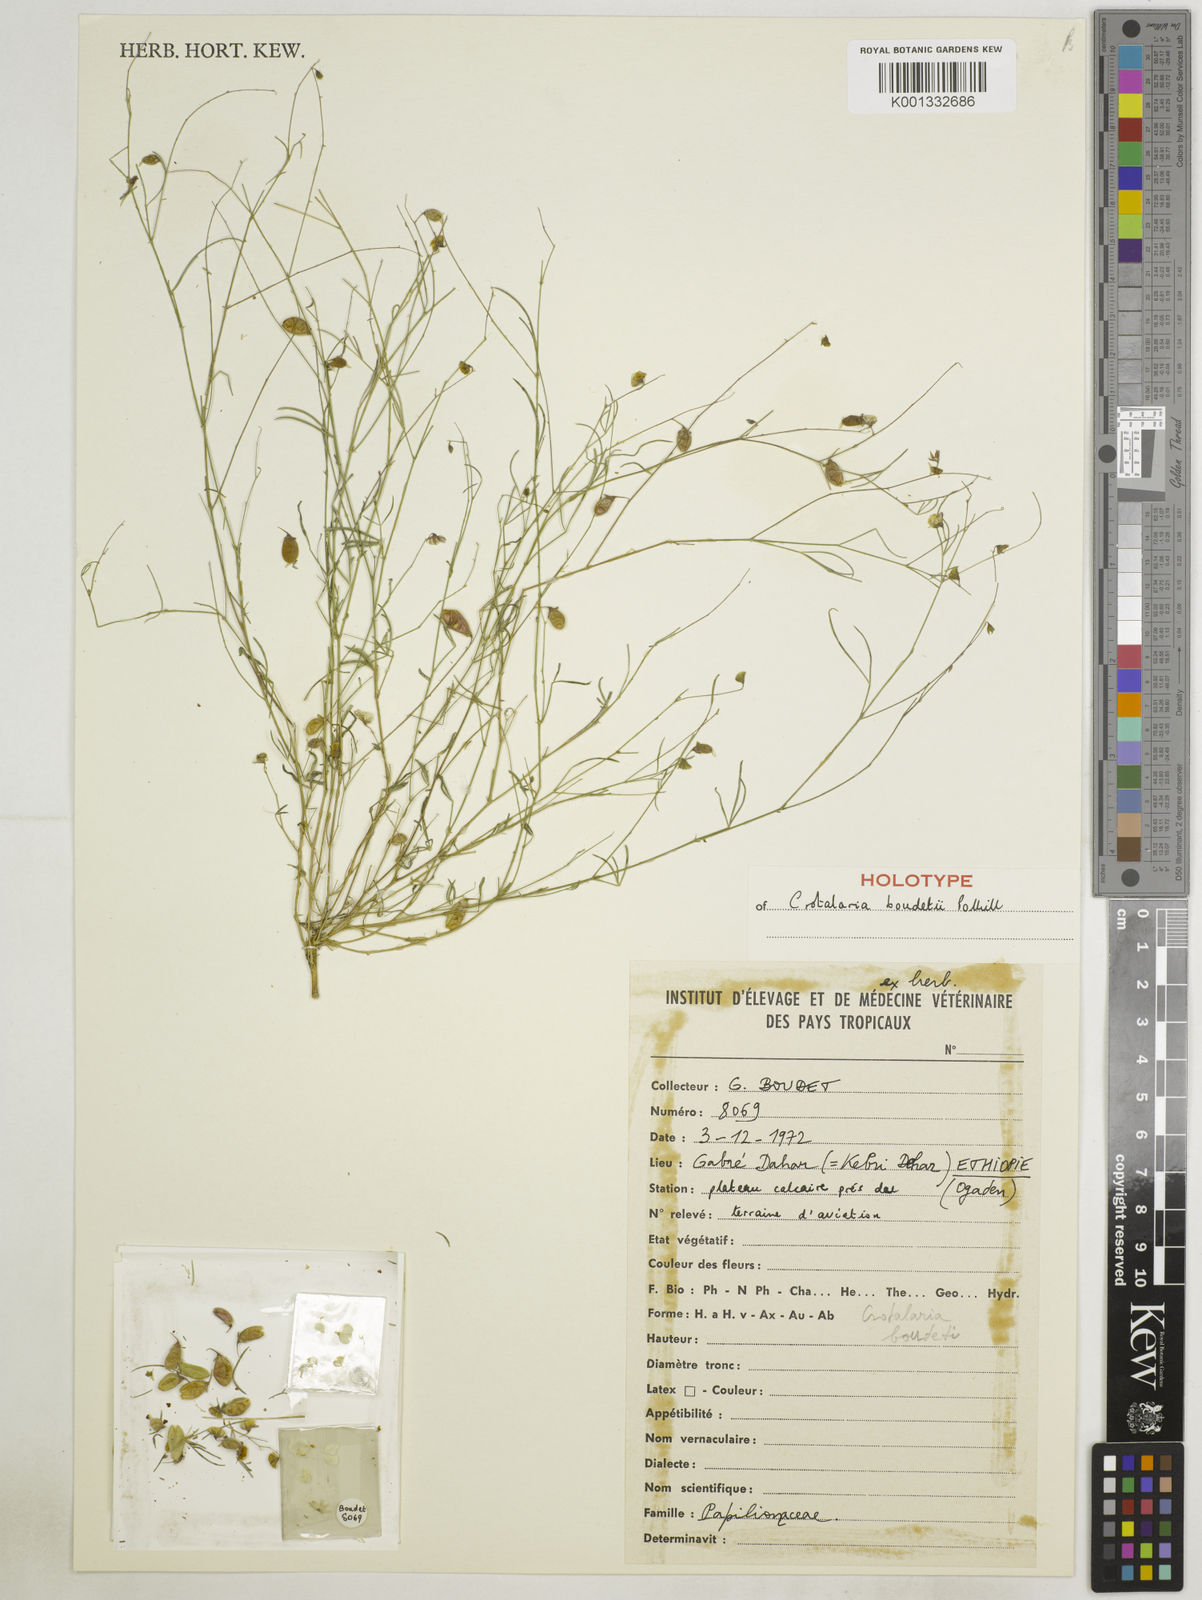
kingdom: Plantae
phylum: Tracheophyta
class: Magnoliopsida
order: Fabales
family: Fabaceae
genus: Crotalaria
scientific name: Crotalaria boudetii
